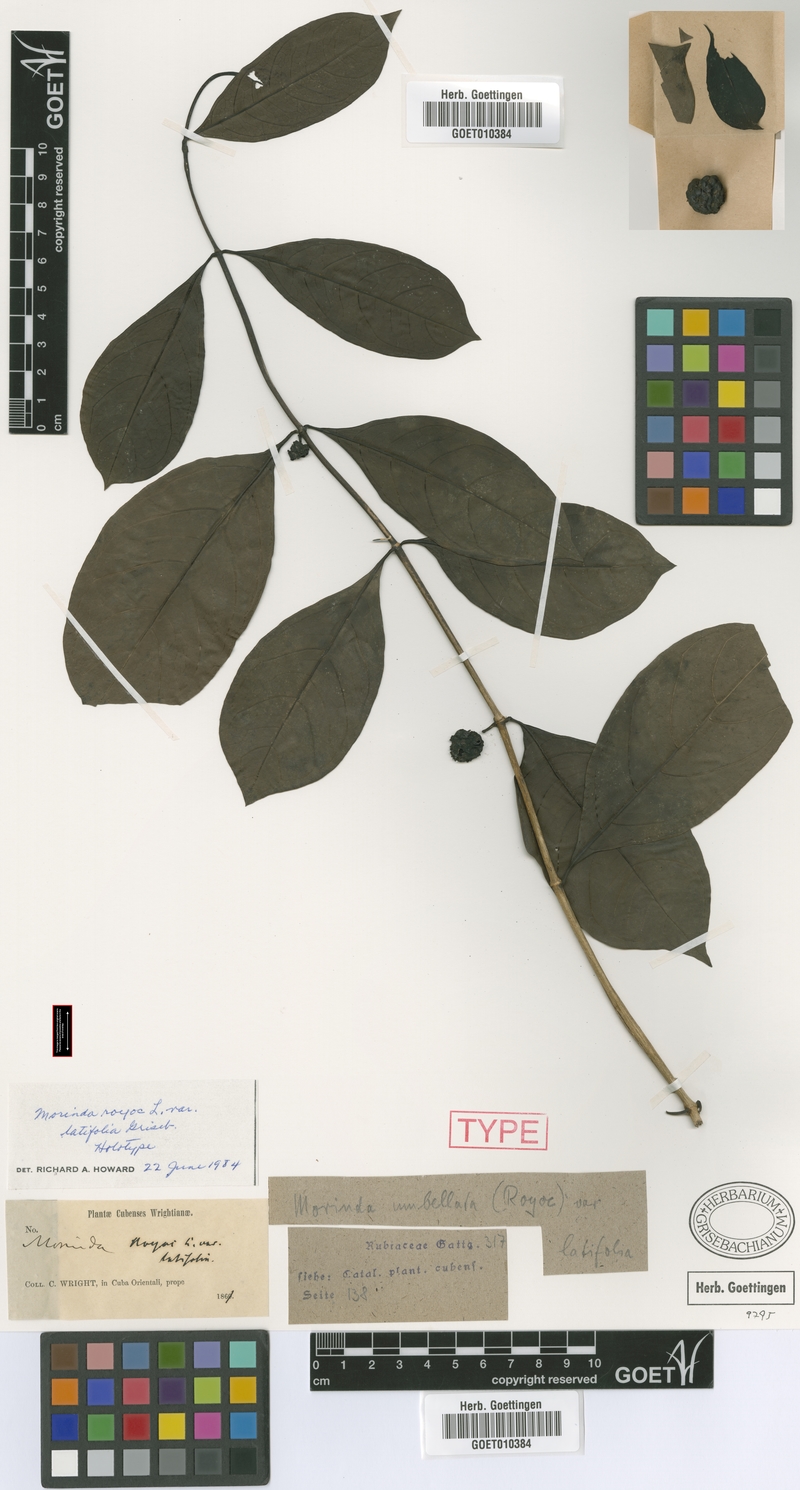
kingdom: Plantae
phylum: Tracheophyta
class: Magnoliopsida
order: Gentianales
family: Rubiaceae
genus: Morinda
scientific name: Morinda royoc
